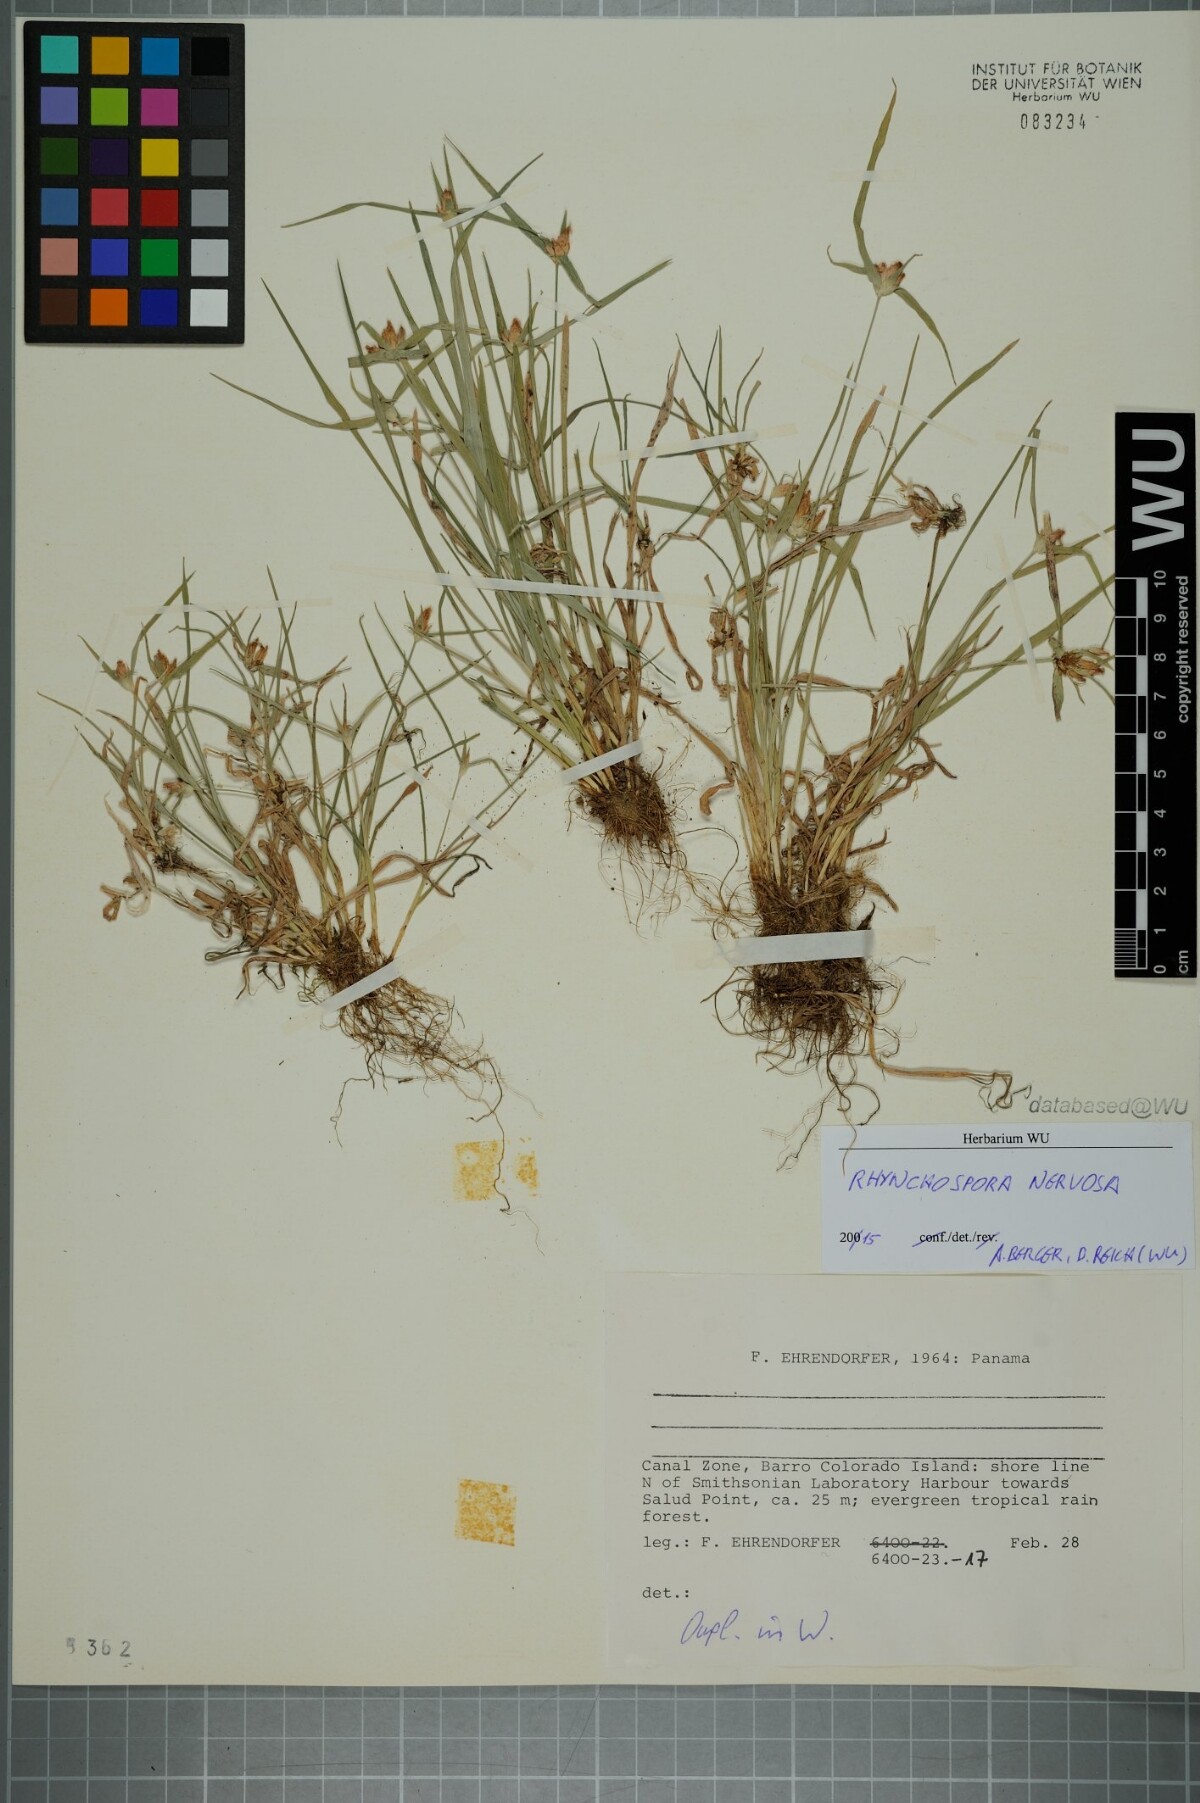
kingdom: Plantae
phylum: Tracheophyta
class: Liliopsida
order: Poales
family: Cyperaceae
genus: Rhynchospora
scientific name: Rhynchospora nervosa
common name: Star sedge
